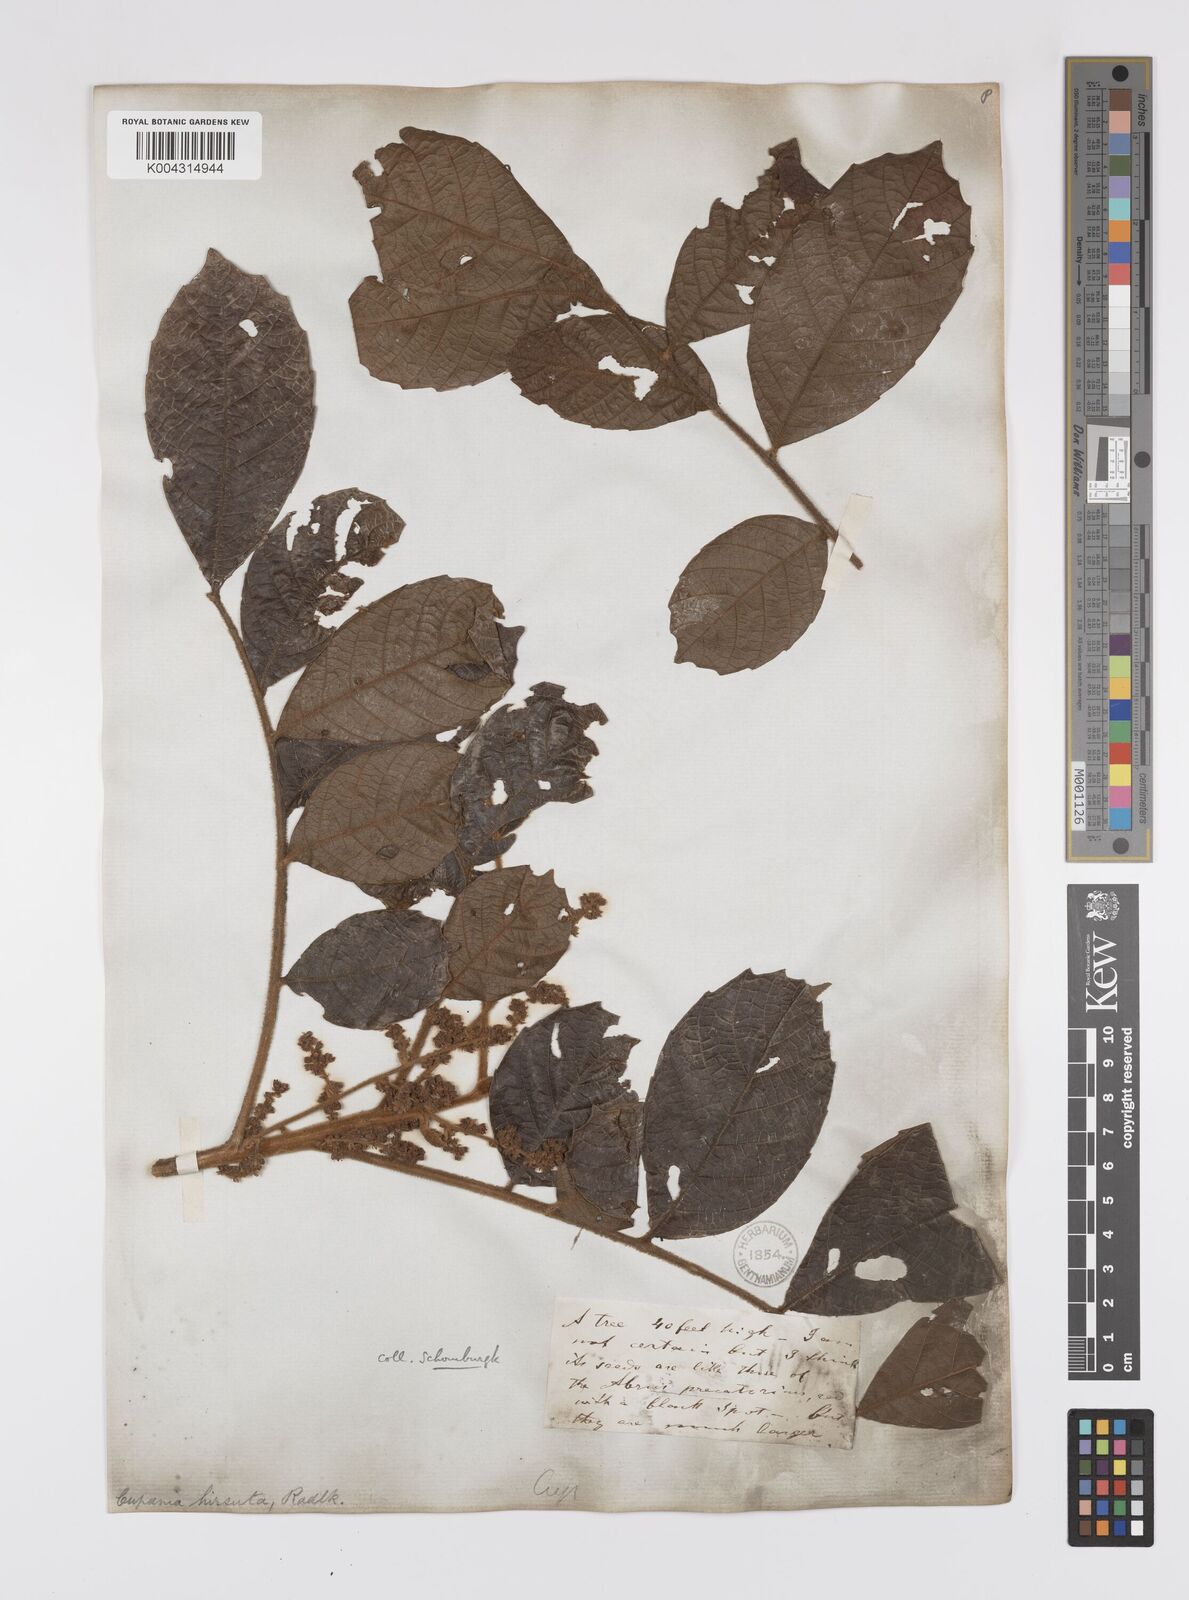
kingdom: Plantae
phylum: Tracheophyta
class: Magnoliopsida
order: Sapindales
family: Sapindaceae
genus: Cupania
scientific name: Cupania hirsuta
